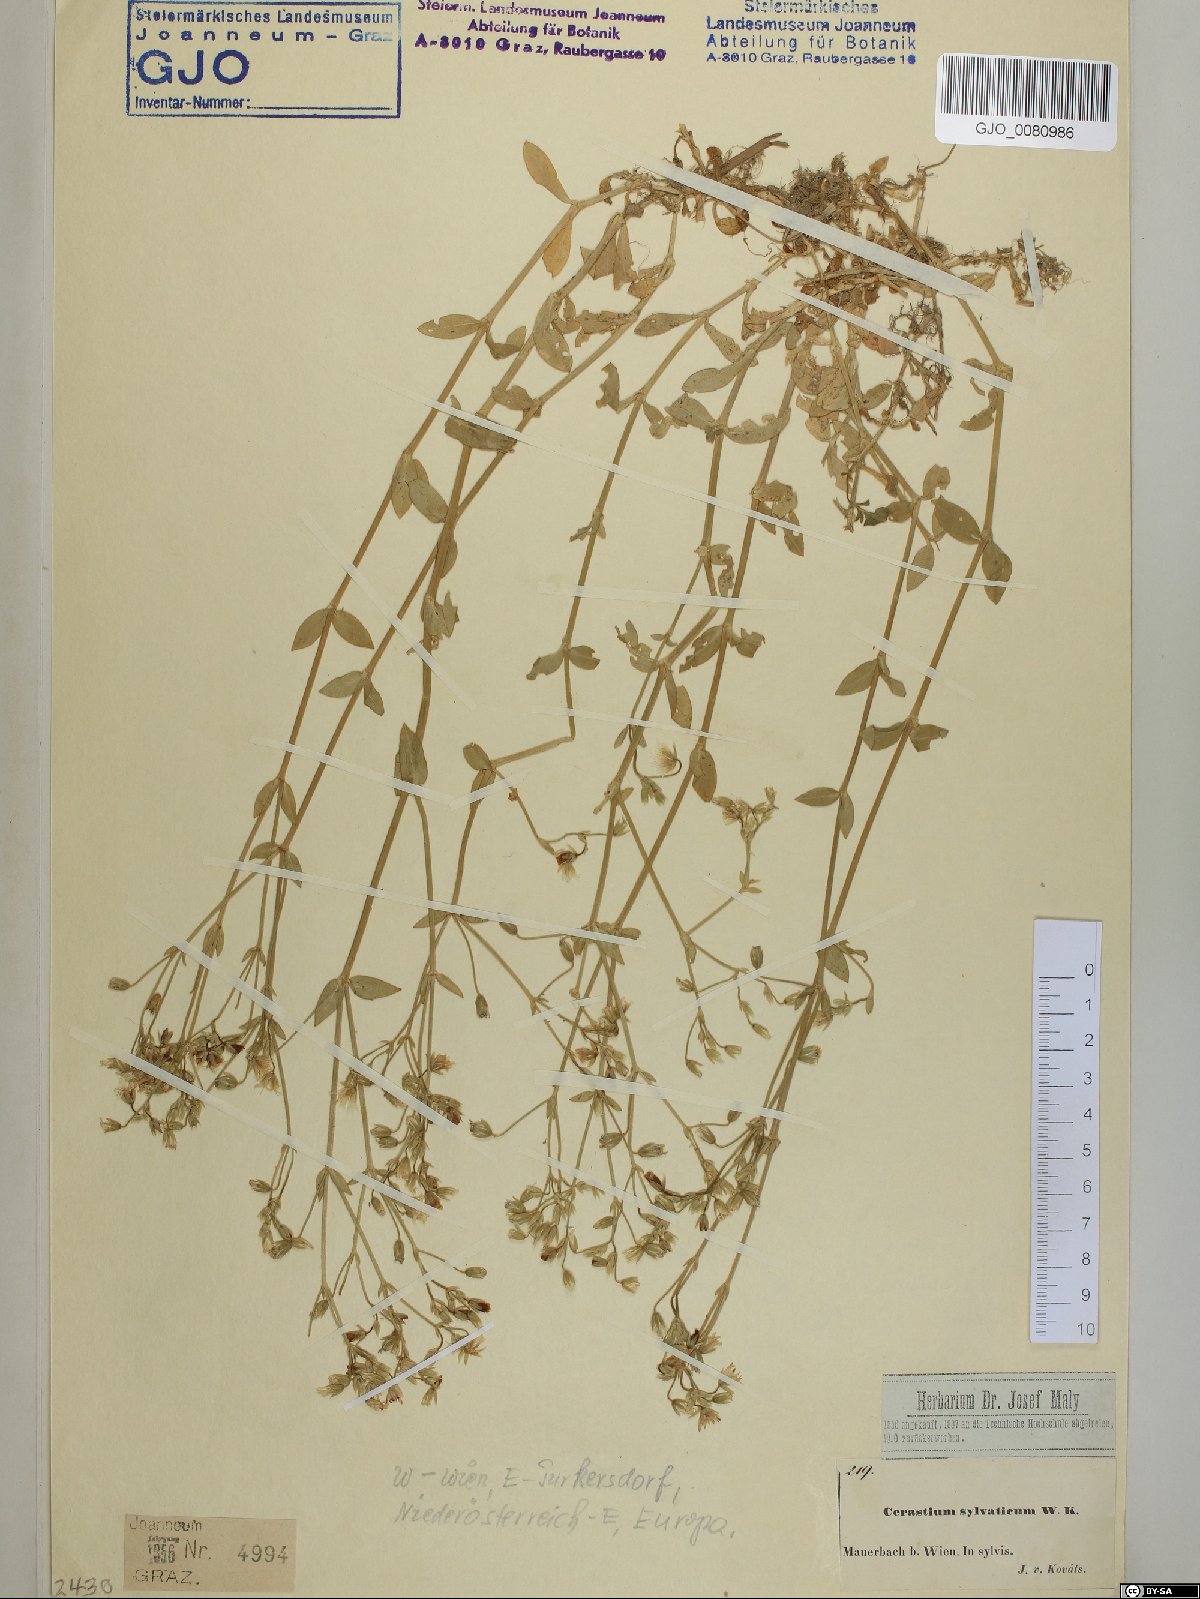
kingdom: Plantae
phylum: Tracheophyta
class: Magnoliopsida
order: Caryophyllales
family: Caryophyllaceae
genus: Cerastium
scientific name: Cerastium sylvaticum
